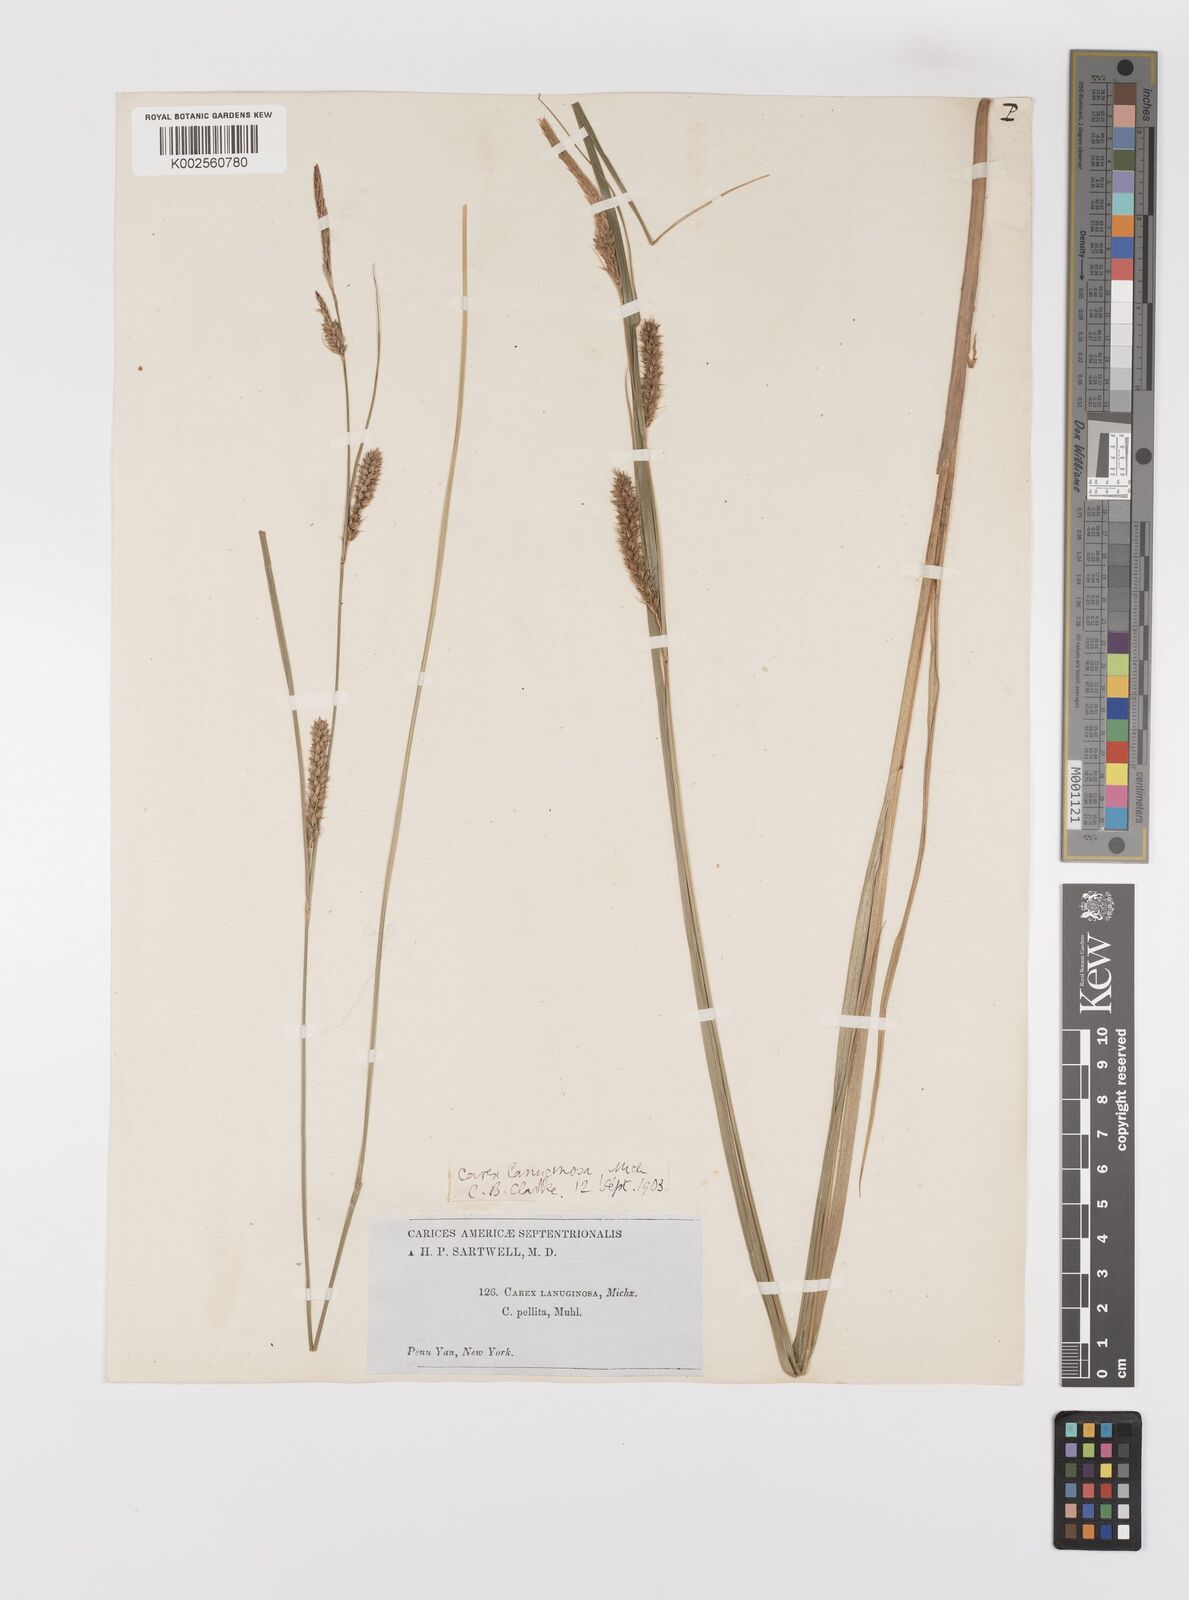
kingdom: Plantae
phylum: Tracheophyta
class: Liliopsida
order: Poales
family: Cyperaceae
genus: Carex
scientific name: Carex lasiocarpa
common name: Slender sedge
